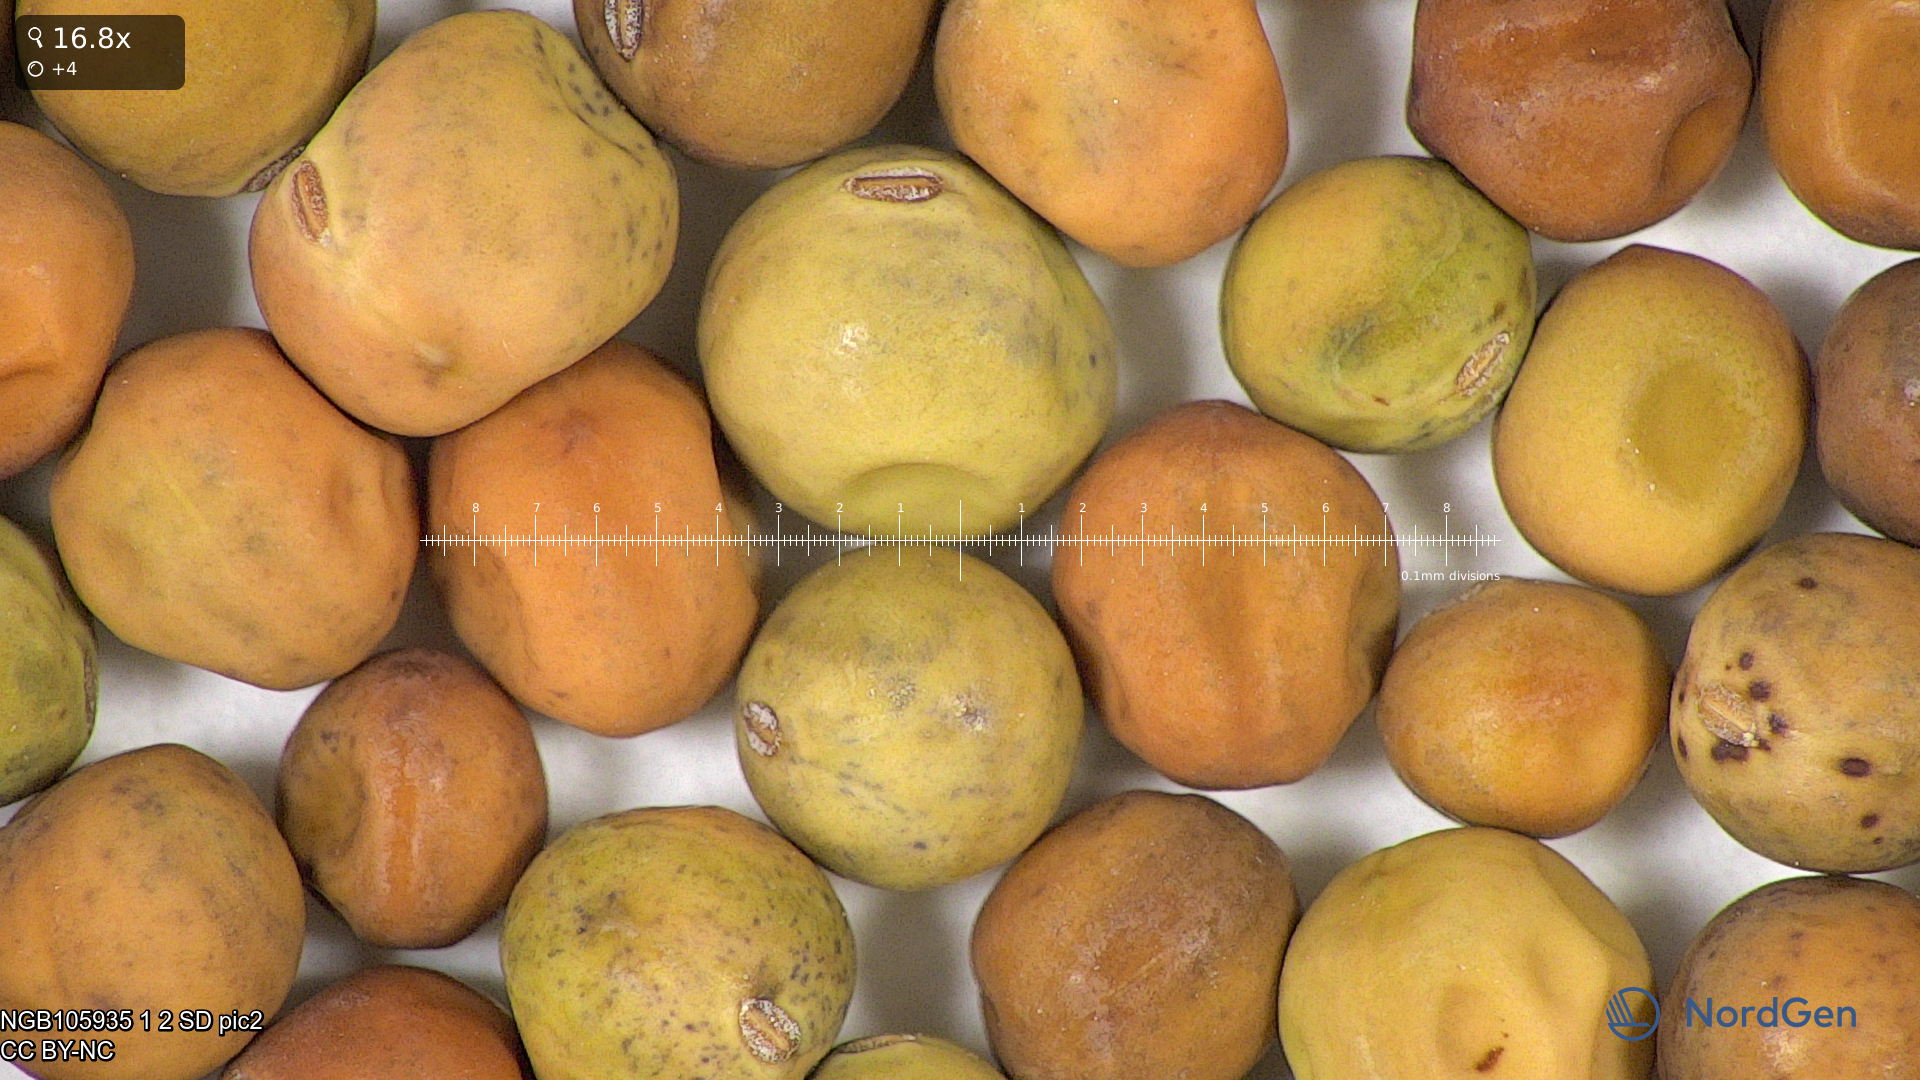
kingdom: Plantae
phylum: Tracheophyta
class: Magnoliopsida
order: Fabales
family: Fabaceae
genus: Lathyrus
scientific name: Lathyrus oleraceus
